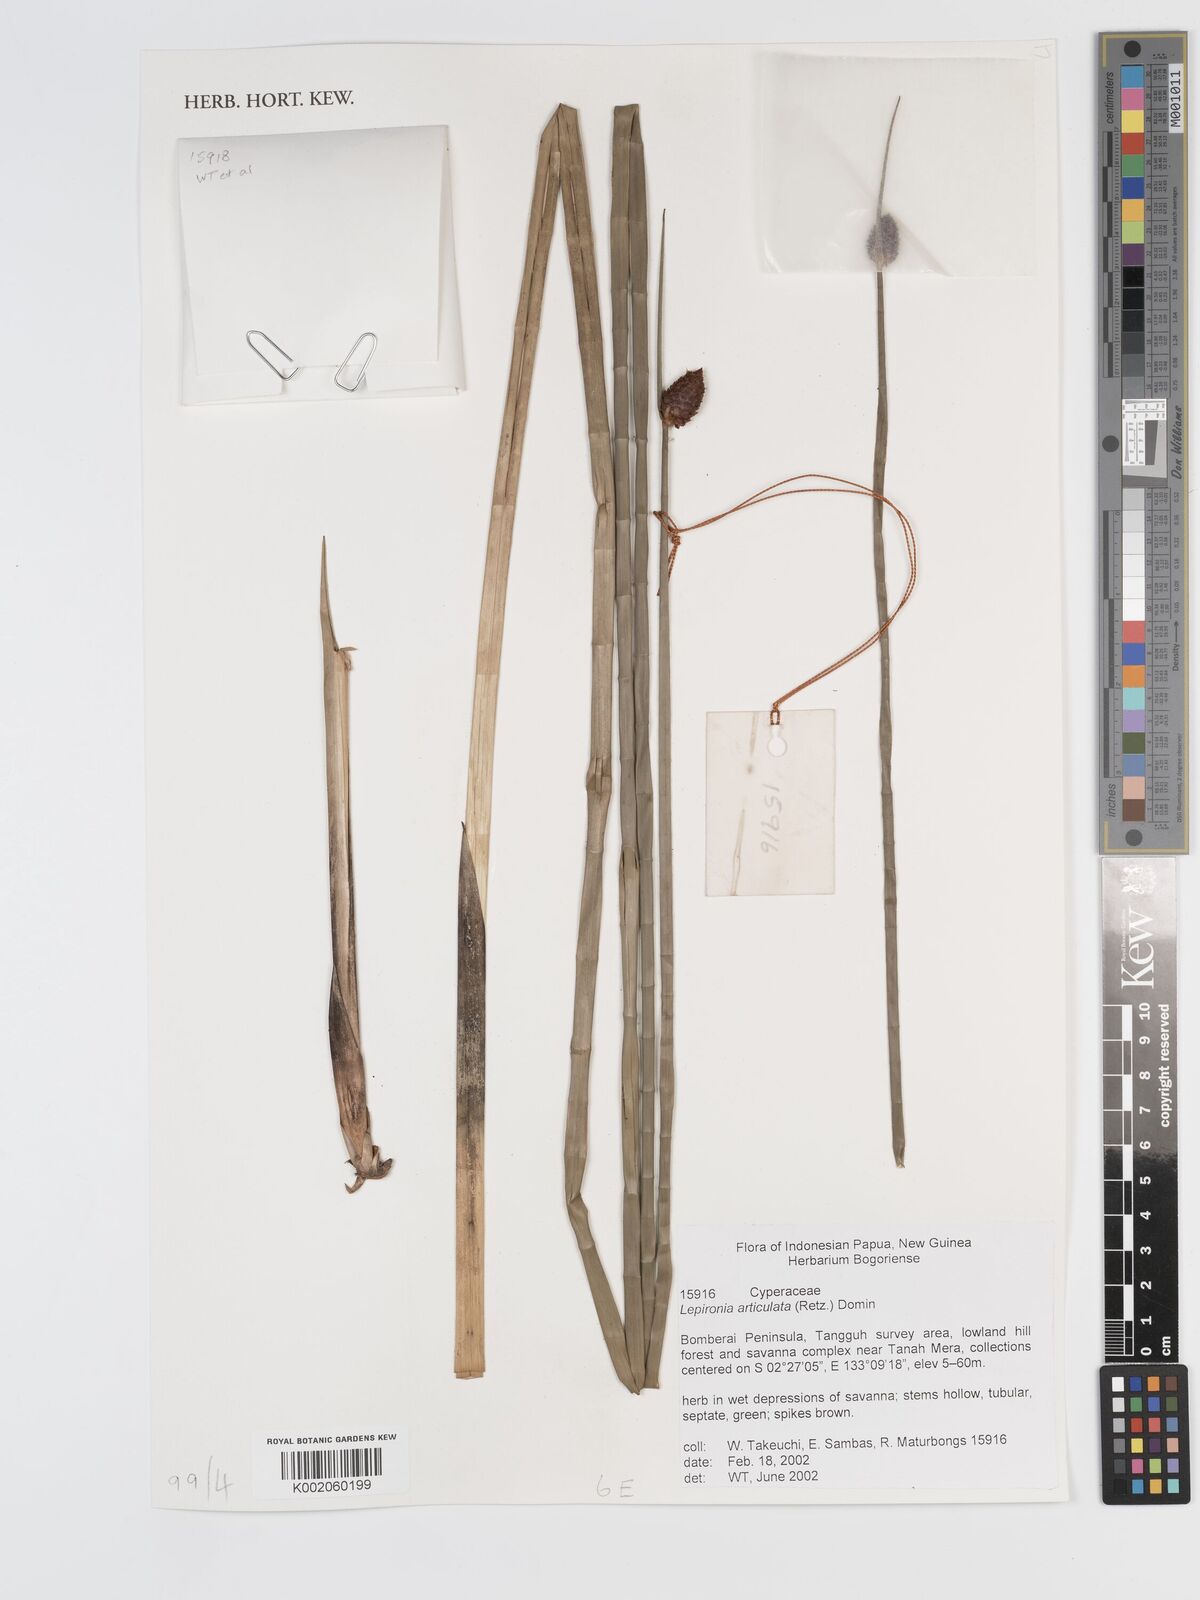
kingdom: Plantae
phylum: Tracheophyta
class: Liliopsida
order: Poales
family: Cyperaceae
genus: Lepironia
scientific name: Lepironia articulata
